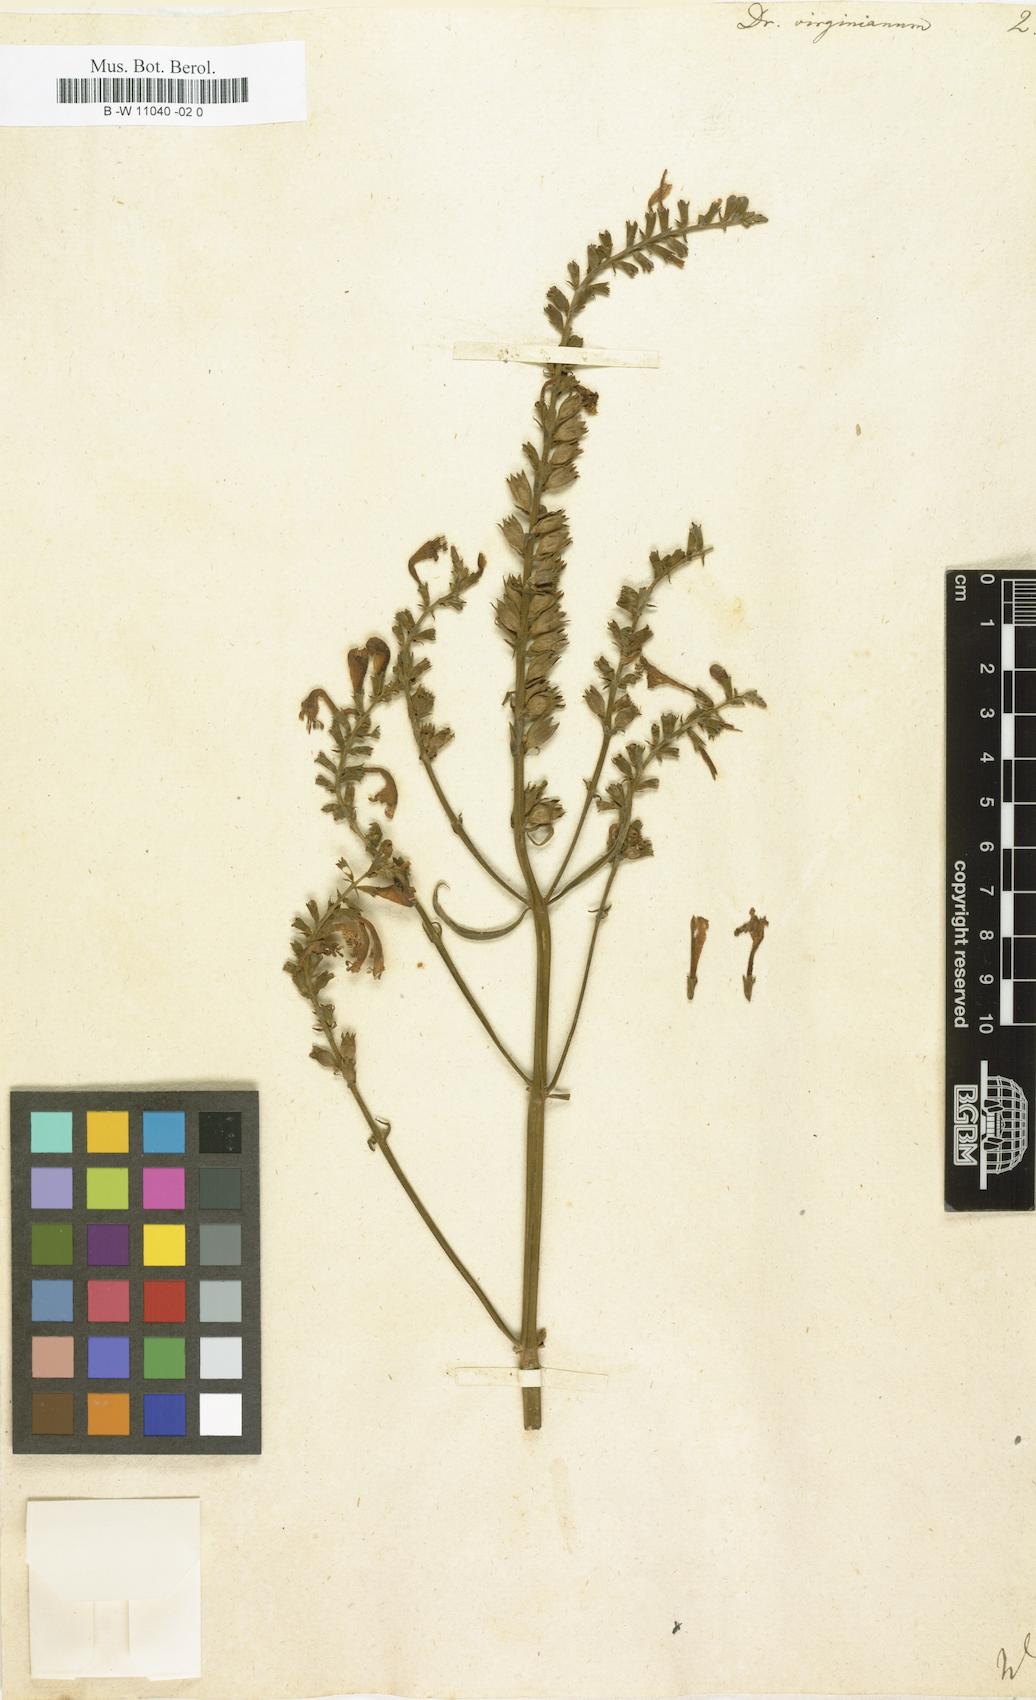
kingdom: Plantae
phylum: Tracheophyta
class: Magnoliopsida
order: Lamiales
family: Lamiaceae
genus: Physostegia
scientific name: Physostegia virginiana
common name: Obedient-plant
